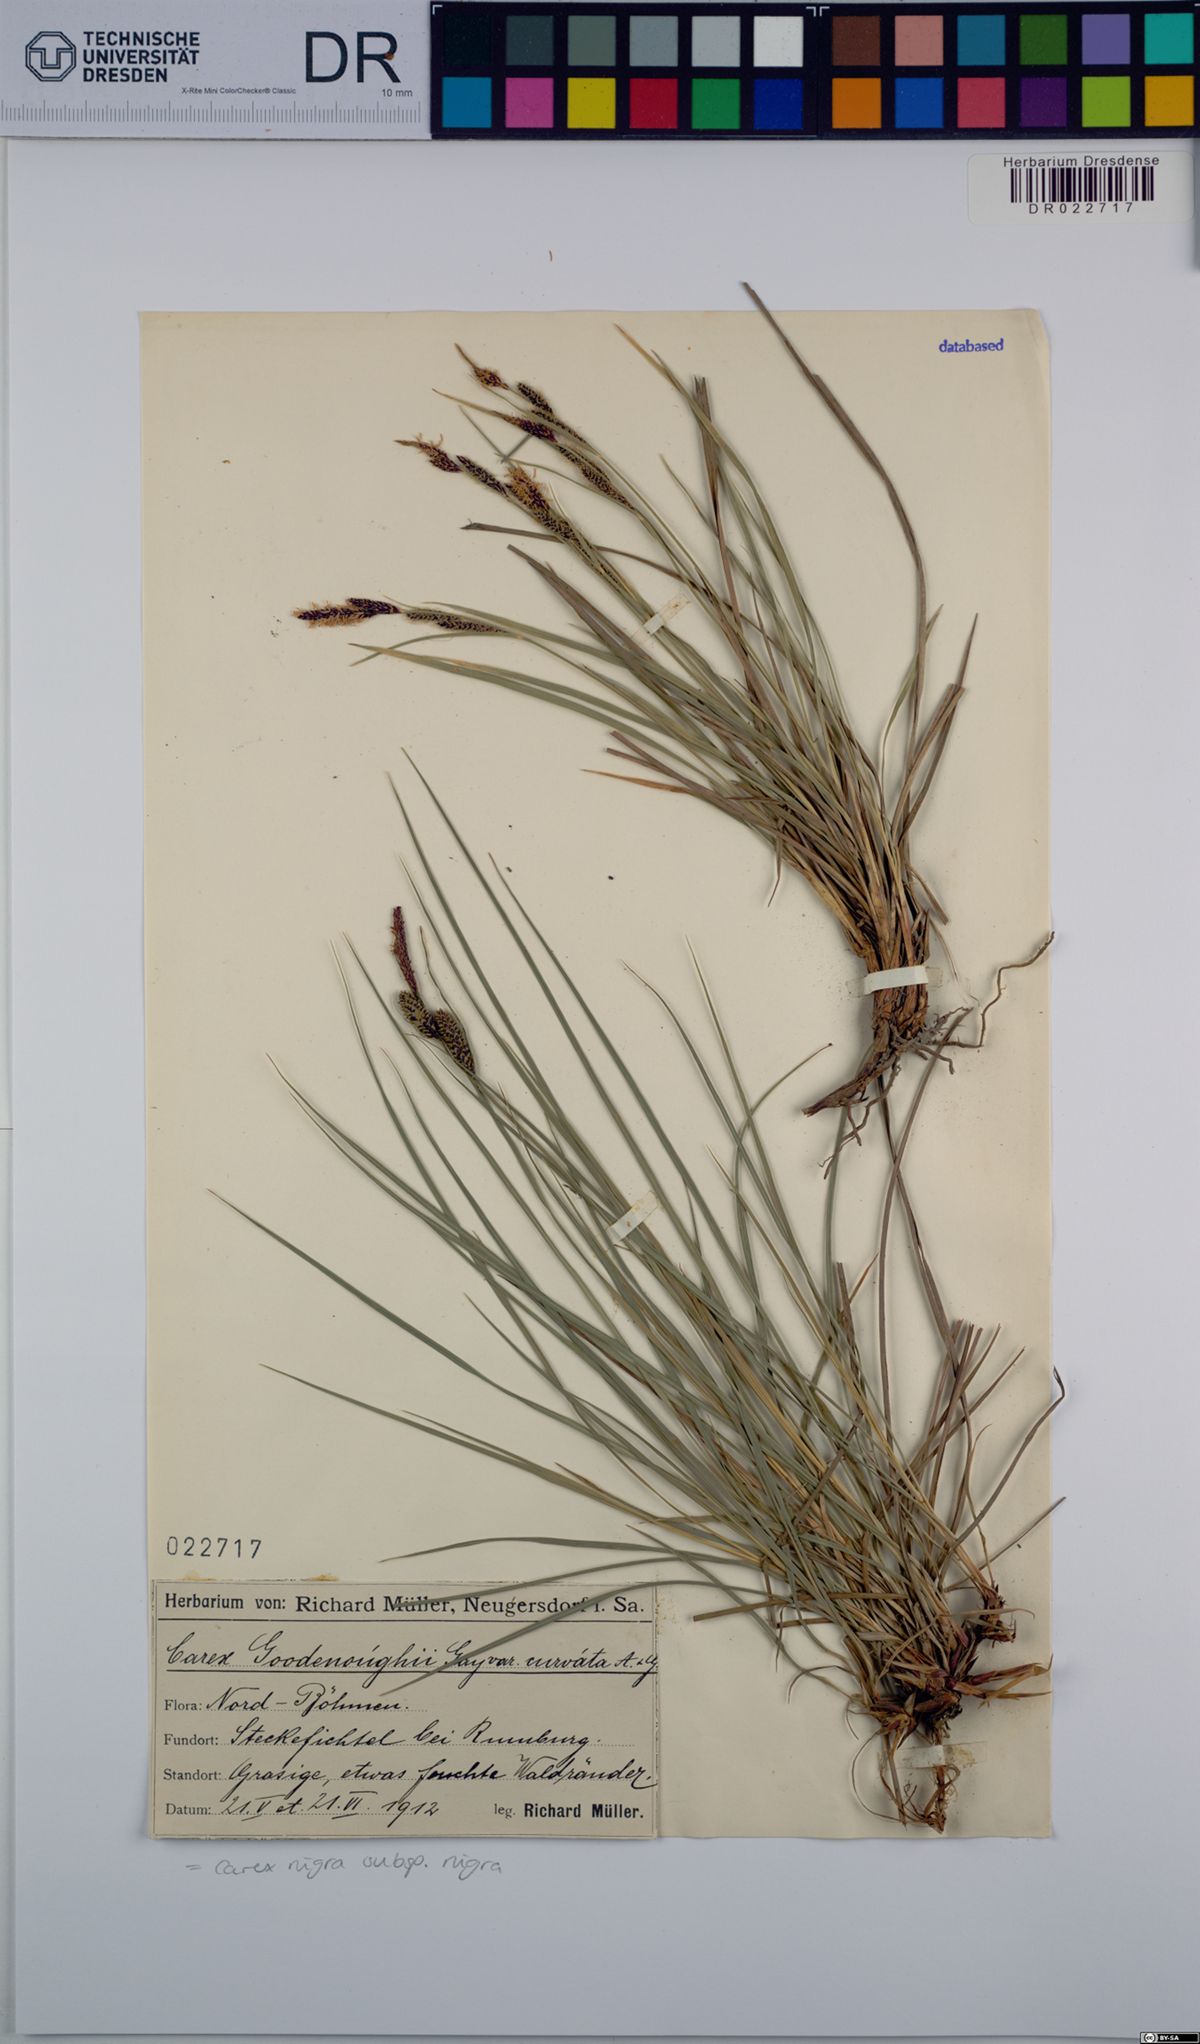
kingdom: Plantae
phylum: Tracheophyta
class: Liliopsida
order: Poales
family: Cyperaceae
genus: Carex
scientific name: Carex nigra
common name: Common sedge
